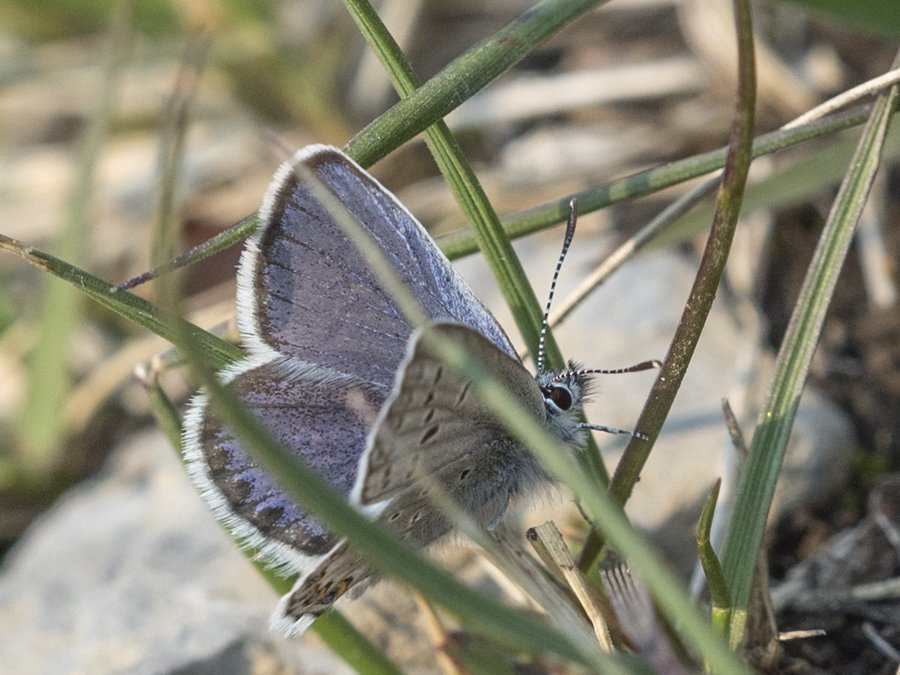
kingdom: Animalia
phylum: Arthropoda
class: Insecta
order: Lepidoptera
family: Lycaenidae
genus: Lycaeides
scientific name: Lycaeides idas
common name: Northern Blue
